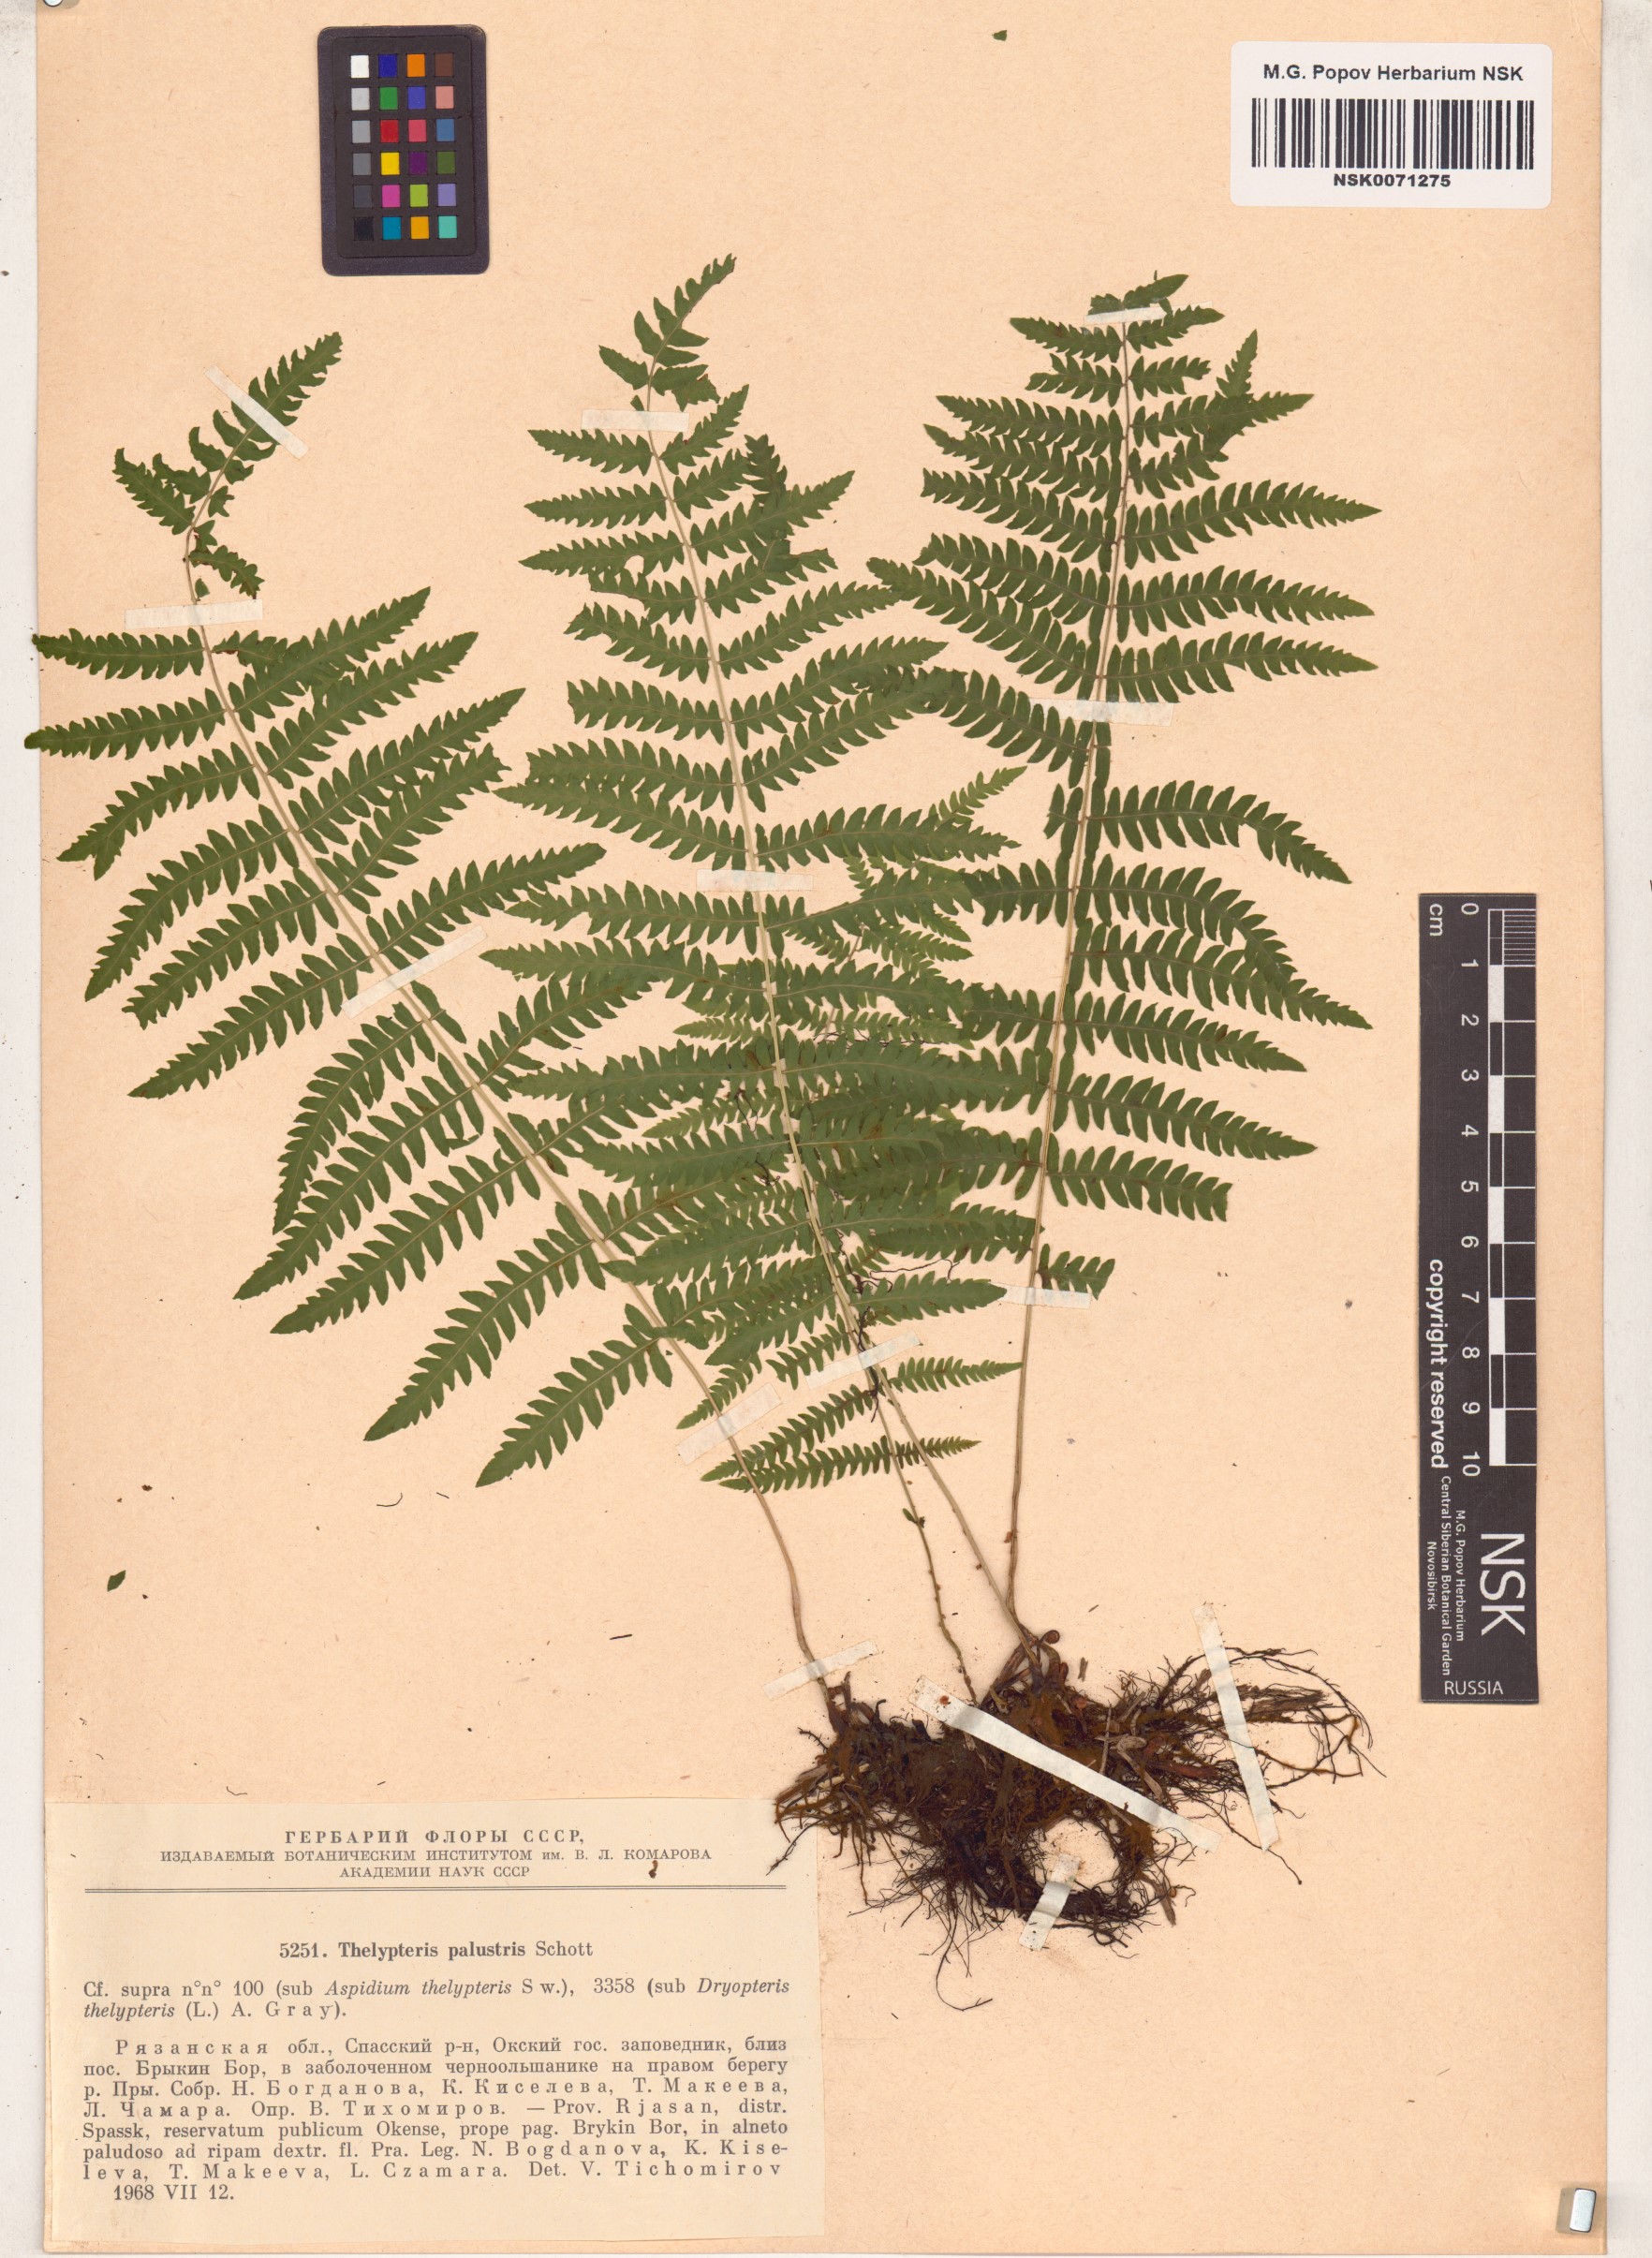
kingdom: Plantae
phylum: Tracheophyta
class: Polypodiopsida
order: Polypodiales
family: Thelypteridaceae
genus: Thelypteris
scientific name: Thelypteris palustris
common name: Marsh fern
